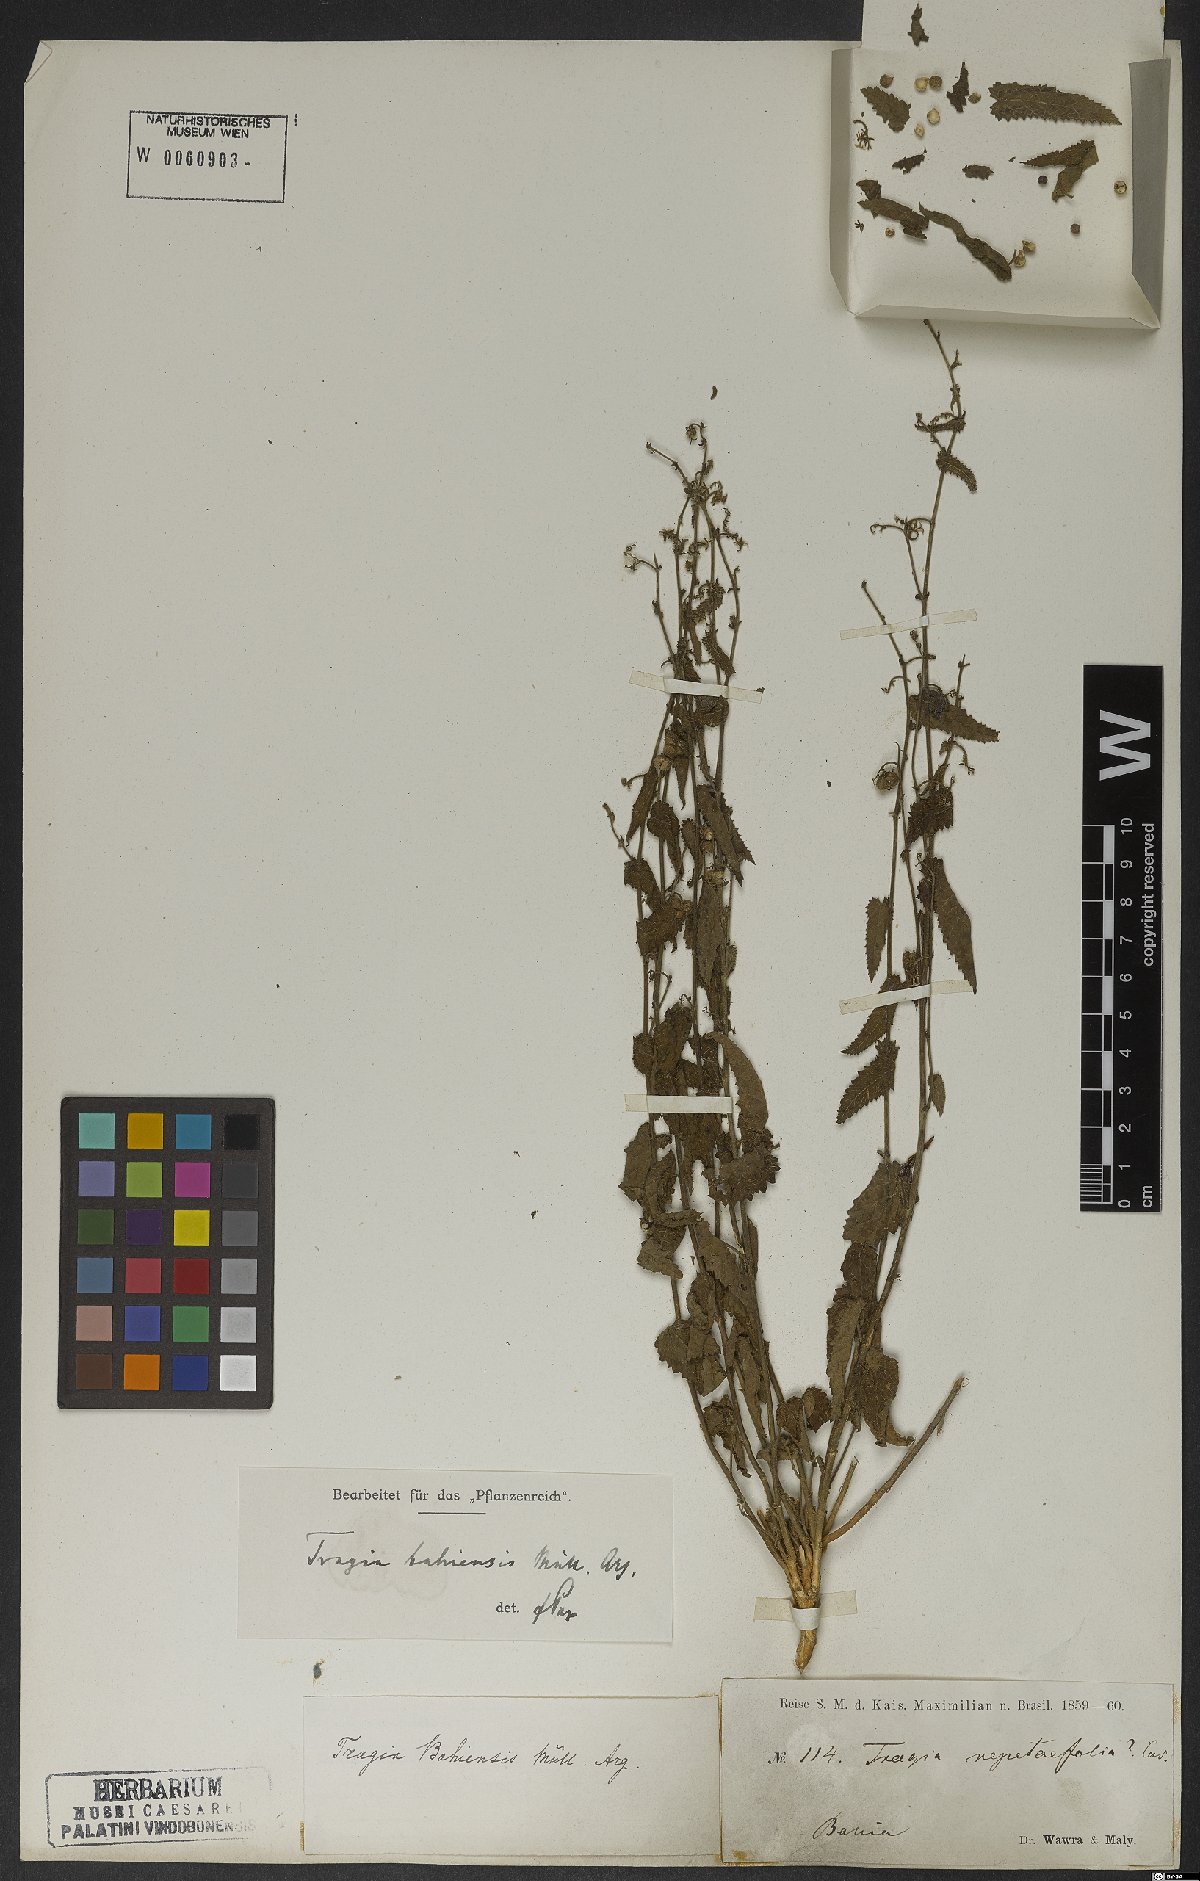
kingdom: Plantae
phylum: Tracheophyta
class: Magnoliopsida
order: Malpighiales
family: Euphorbiaceae
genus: Tragia
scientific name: Tragia bahiensis
